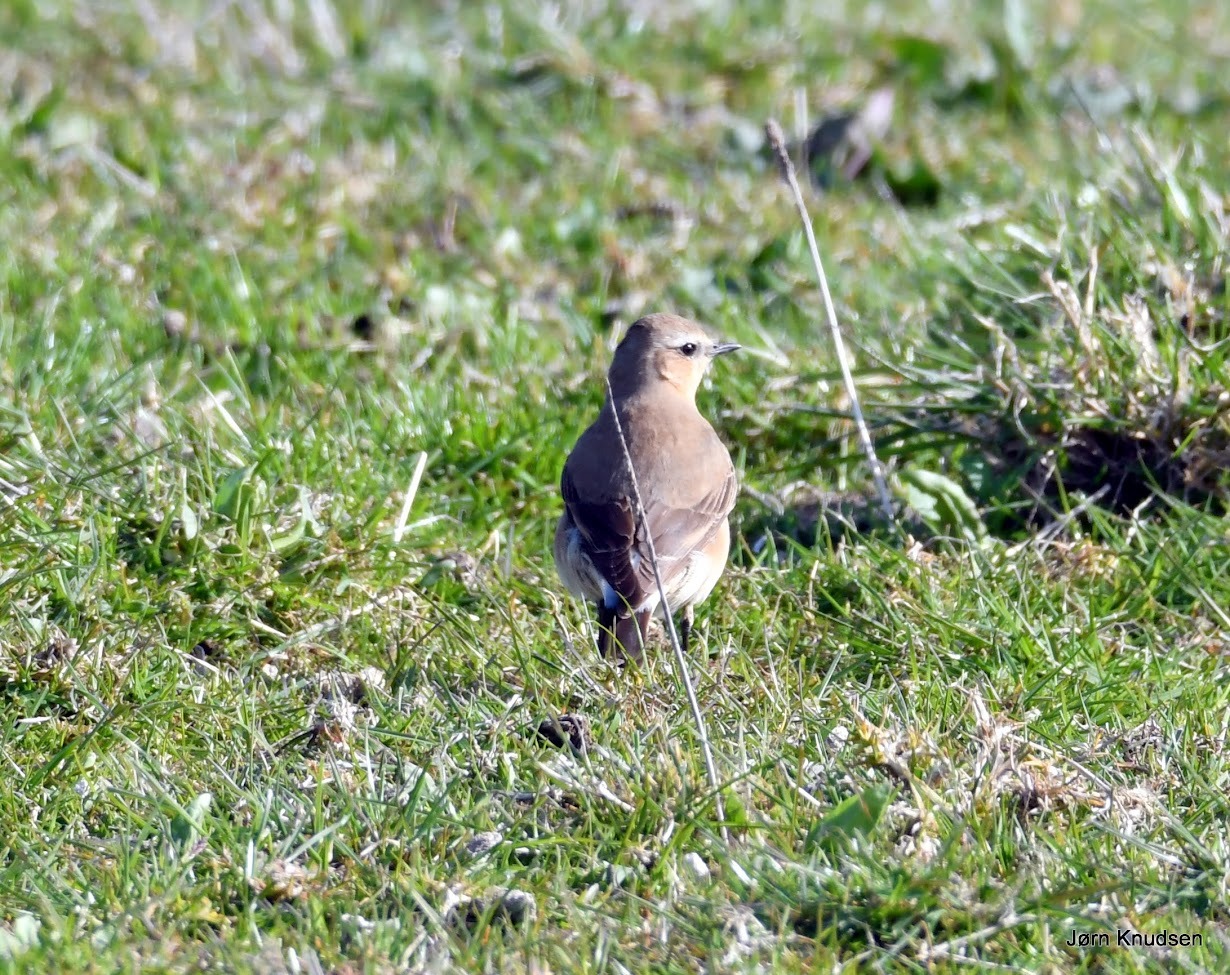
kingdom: Animalia
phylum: Chordata
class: Aves
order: Passeriformes
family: Muscicapidae
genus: Oenanthe
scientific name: Oenanthe oenanthe
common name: Stenpikker
